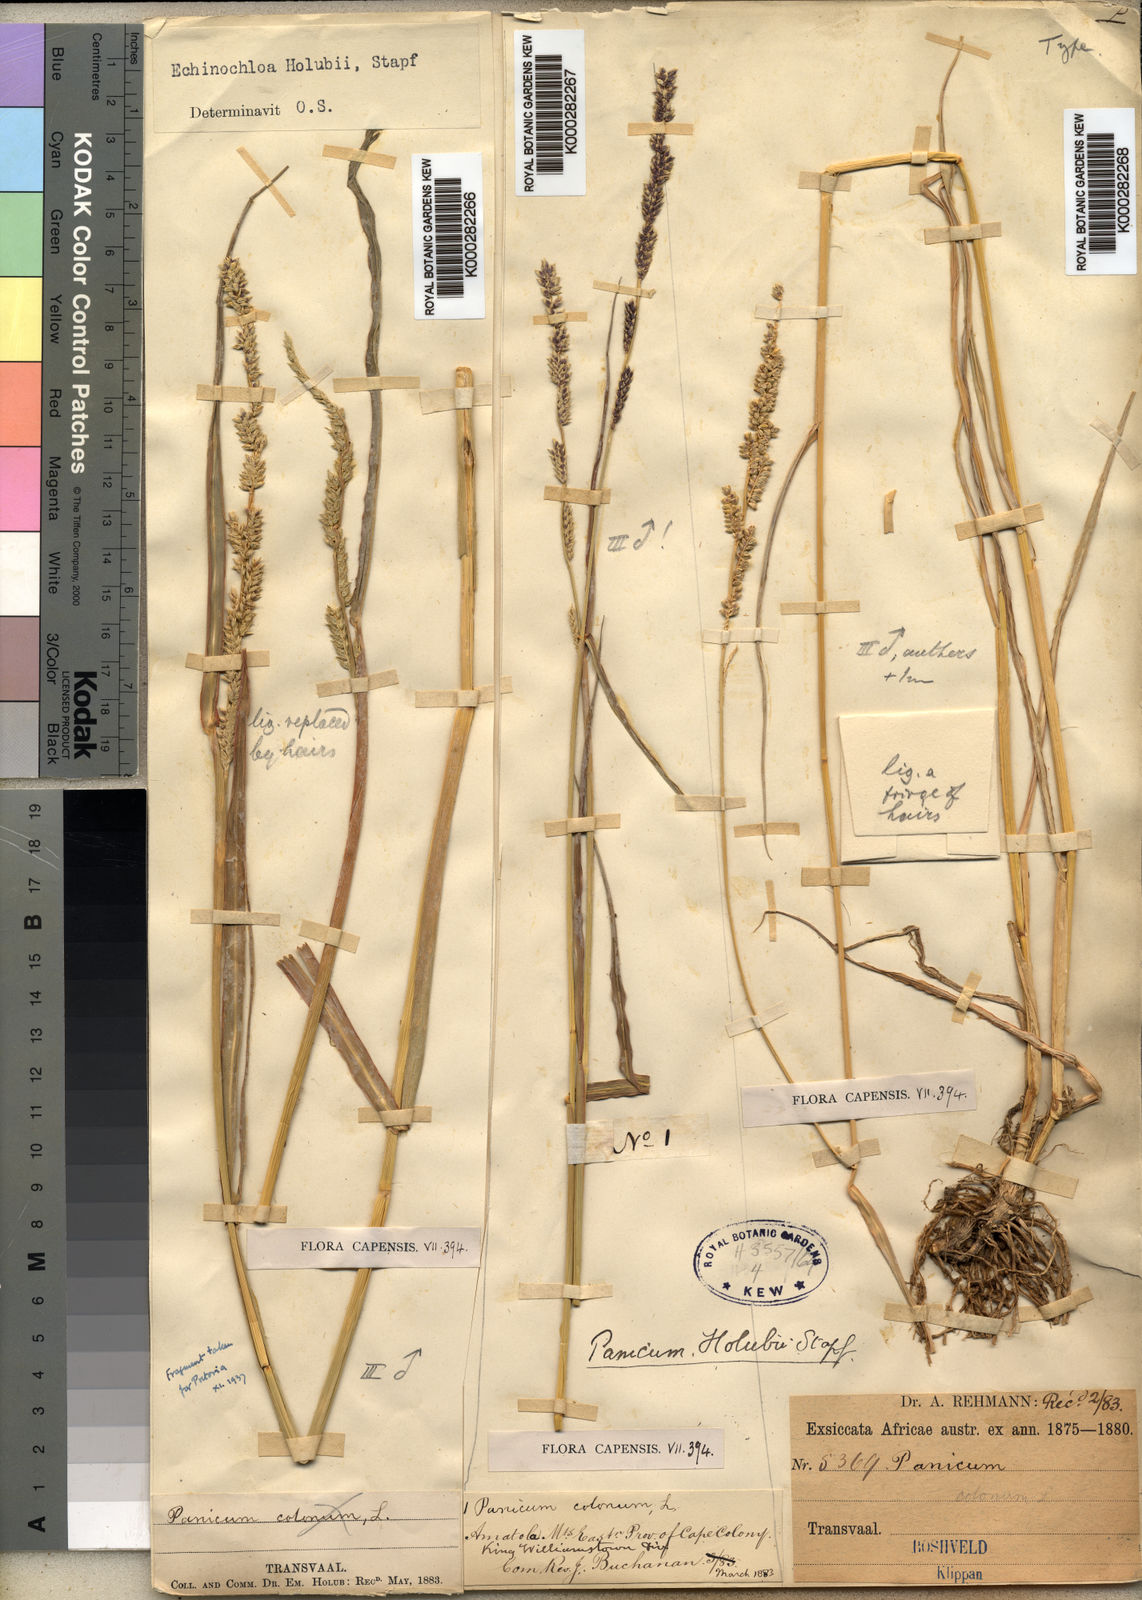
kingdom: Plantae
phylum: Tracheophyta
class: Liliopsida
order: Poales
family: Poaceae
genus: Echinochloa
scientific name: Echinochloa pyramidalis
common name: Antelope grass
